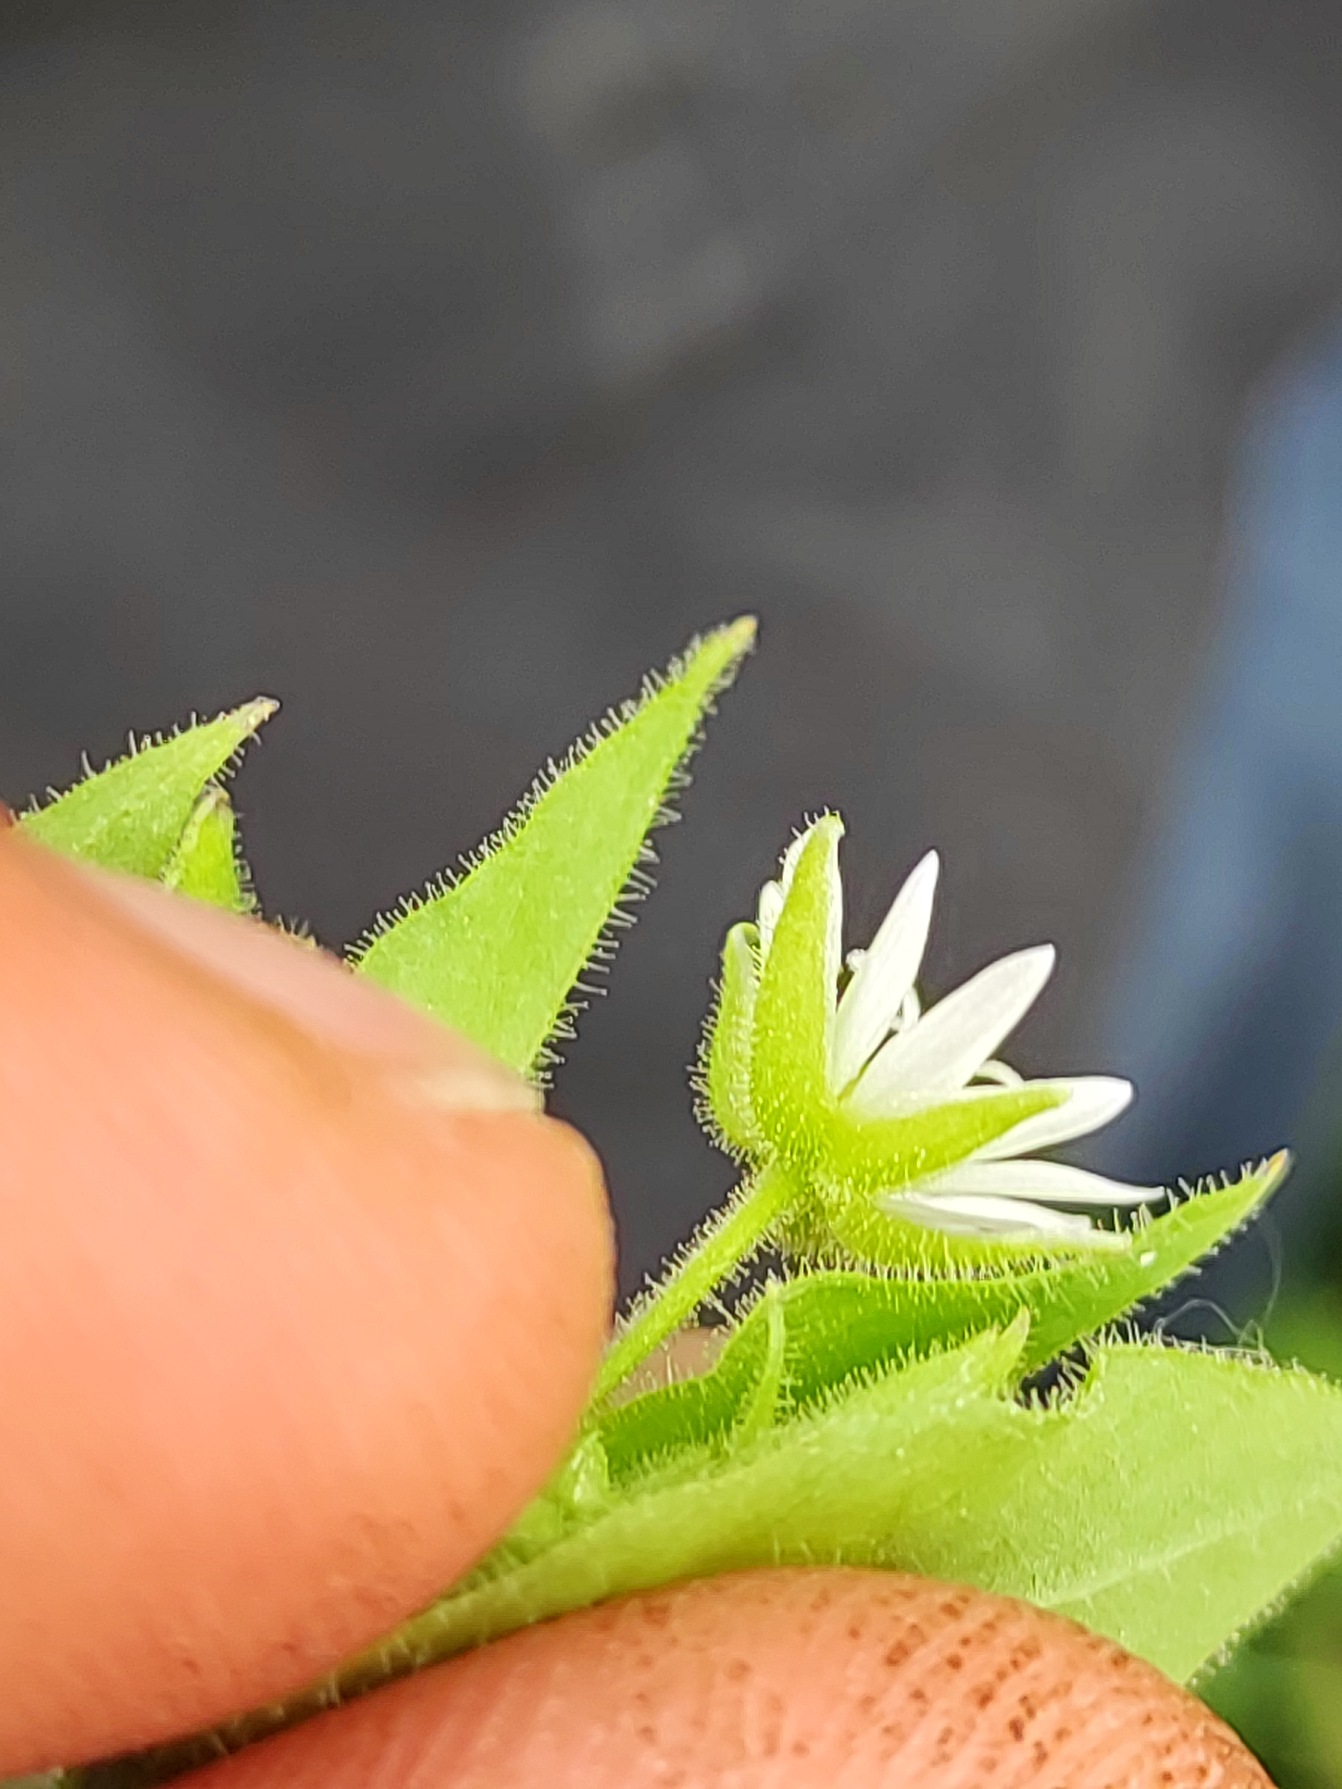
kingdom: Plantae
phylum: Tracheophyta
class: Magnoliopsida
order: Caryophyllales
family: Caryophyllaceae
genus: Stellaria
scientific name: Stellaria aquatica
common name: Kløvkrone
